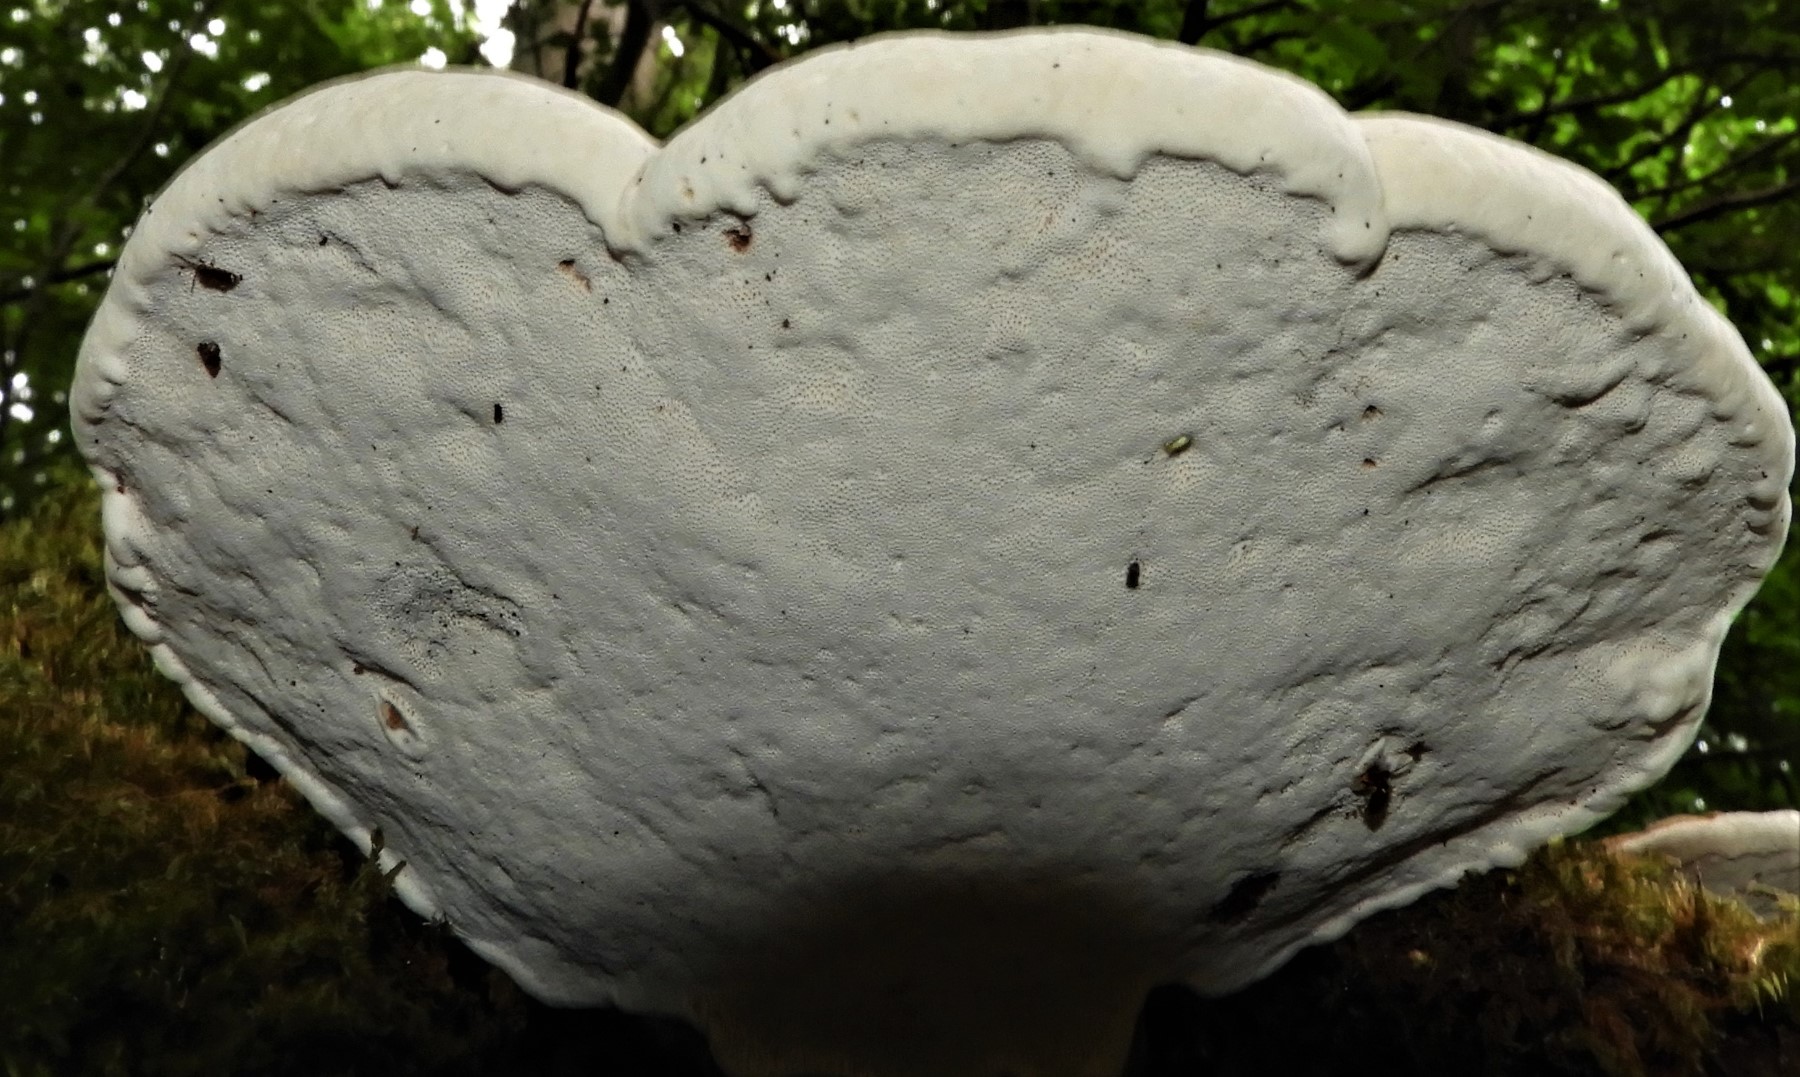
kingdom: Fungi
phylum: Basidiomycota
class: Agaricomycetes
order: Polyporales
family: Polyporaceae
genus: Ganoderma
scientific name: Ganoderma applanatum
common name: flad lakporesvamp
